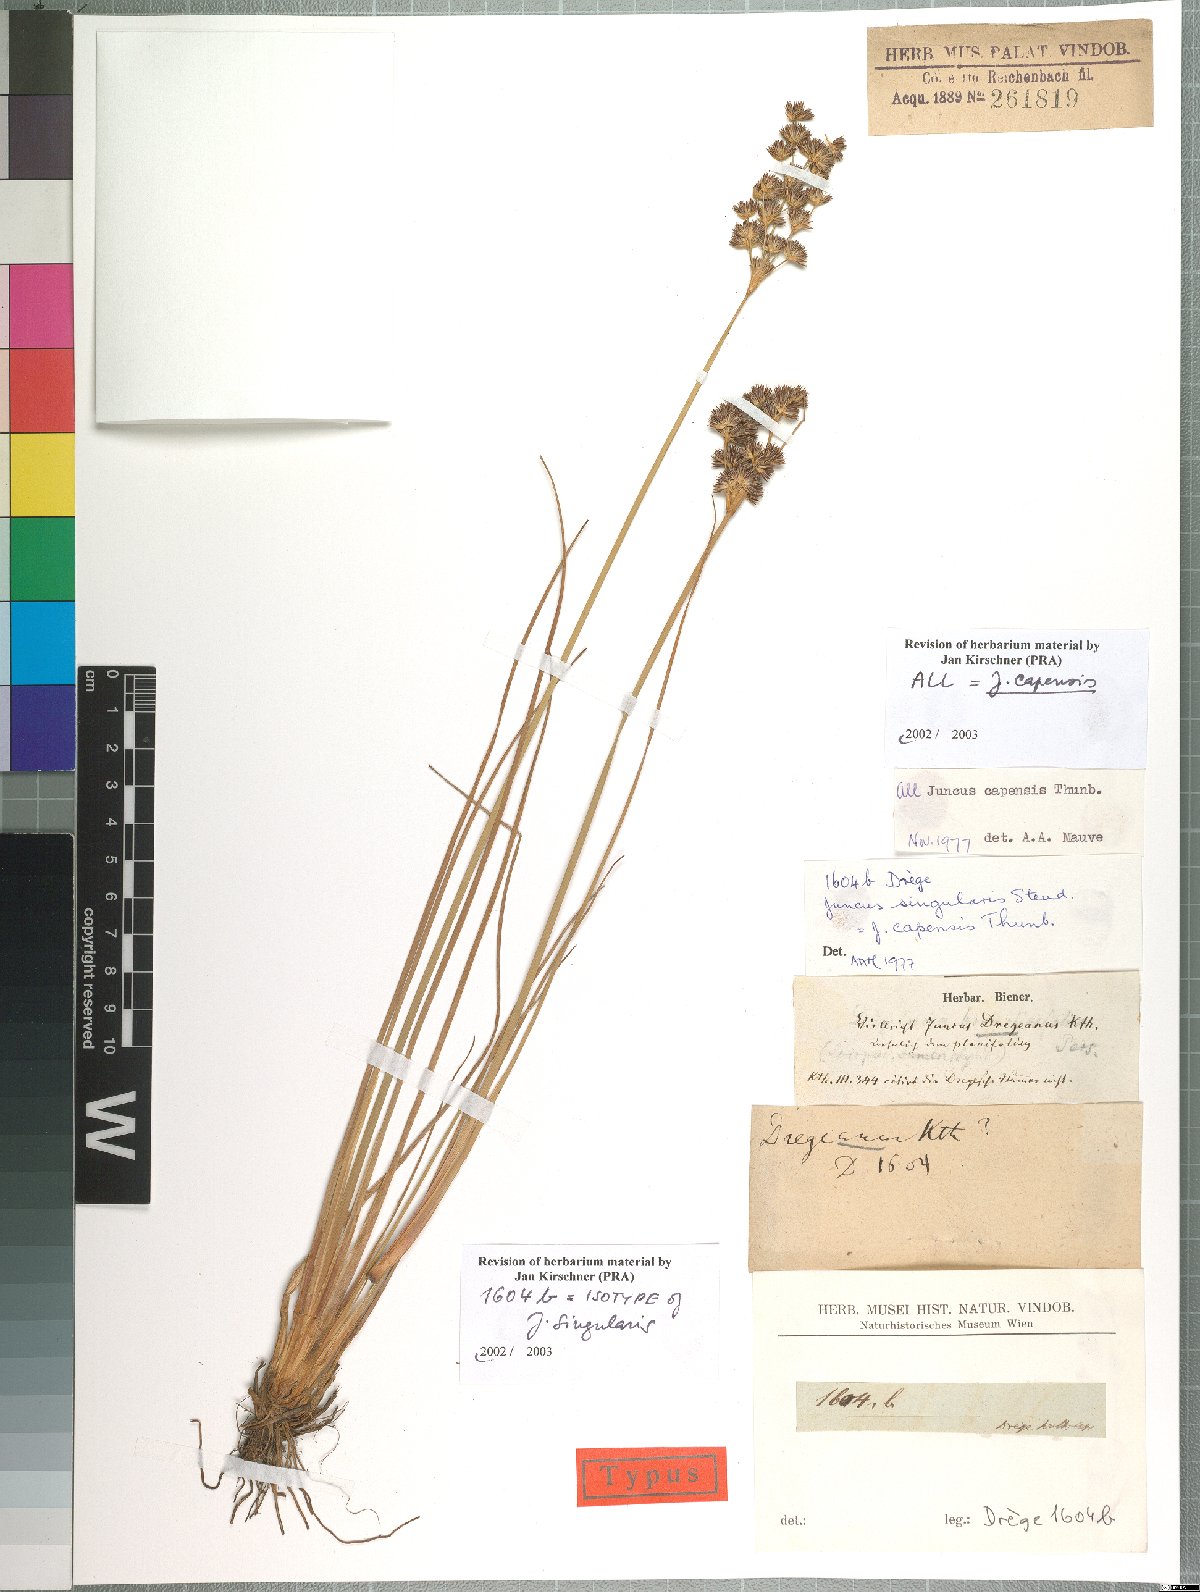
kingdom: Plantae
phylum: Tracheophyta
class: Liliopsida
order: Poales
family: Juncaceae
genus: Juncus
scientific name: Juncus capensis
